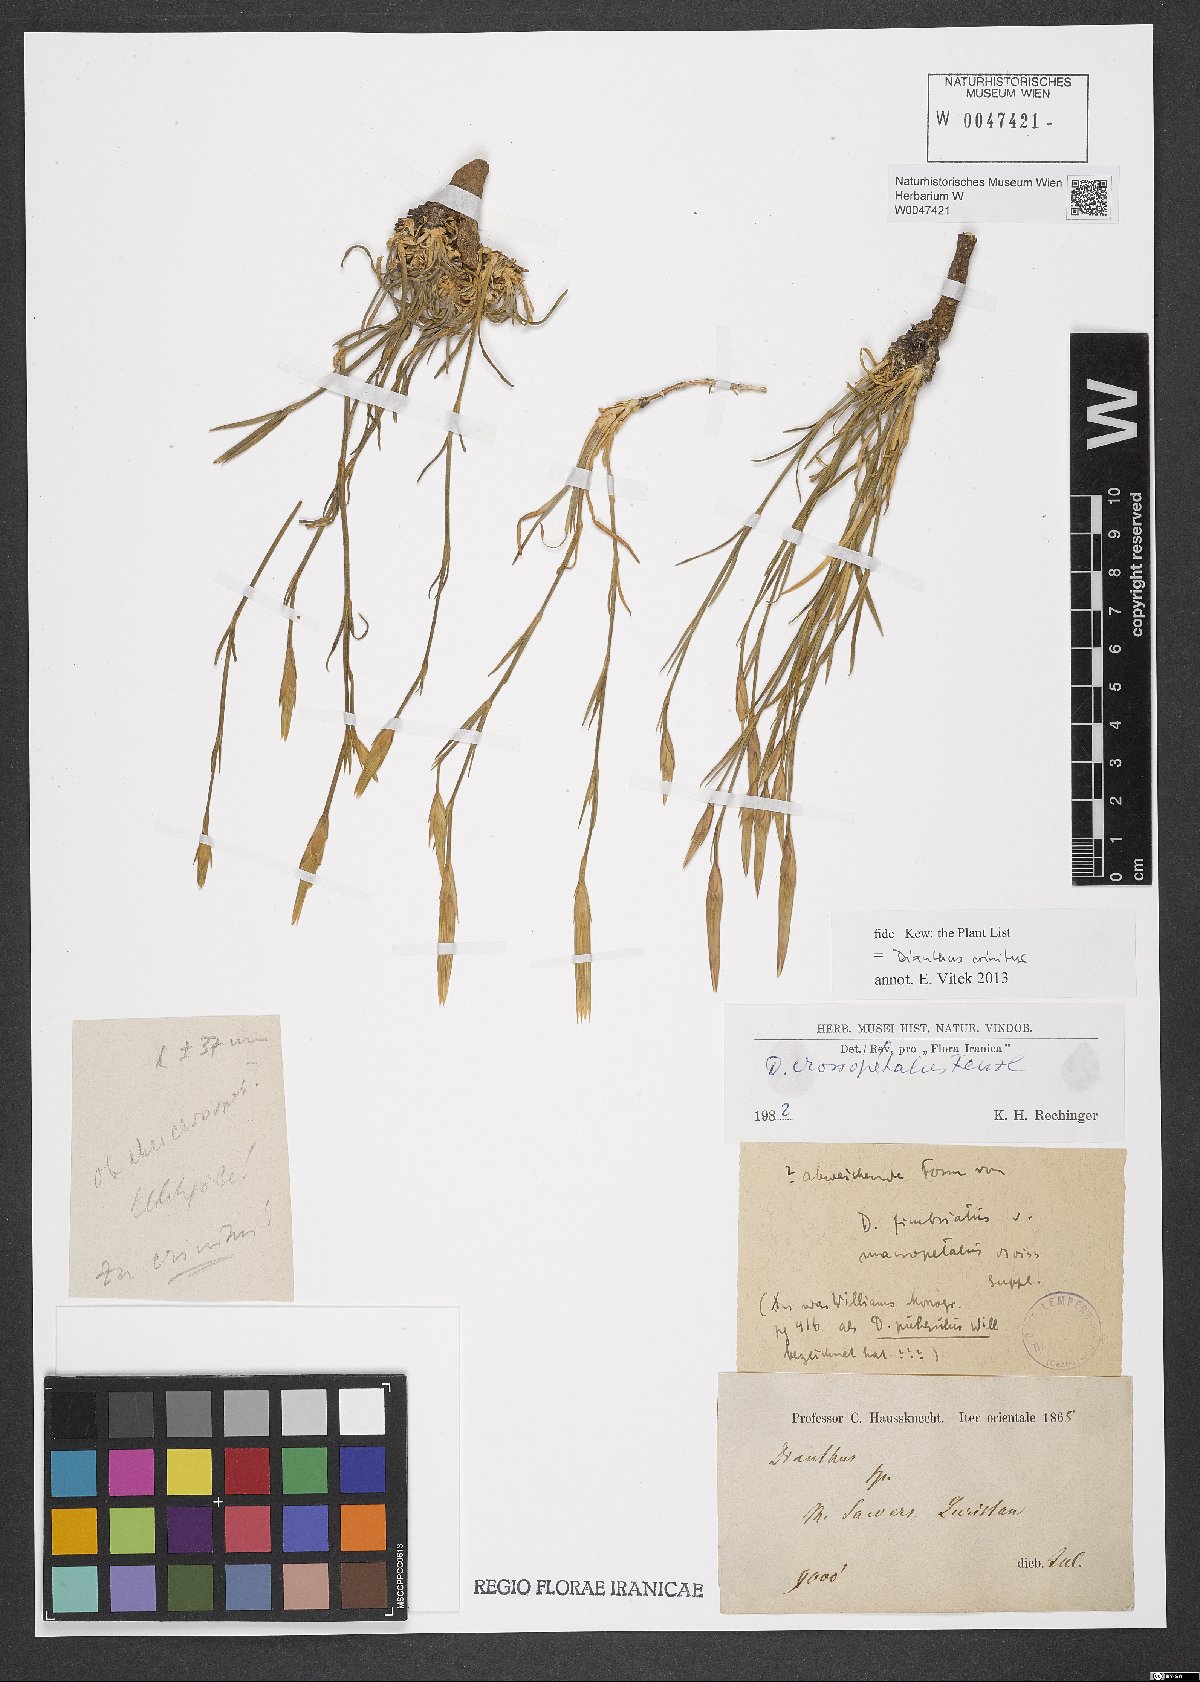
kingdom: Plantae
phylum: Tracheophyta
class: Magnoliopsida
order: Caryophyllales
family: Caryophyllaceae
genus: Dianthus
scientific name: Dianthus crossopetalus
